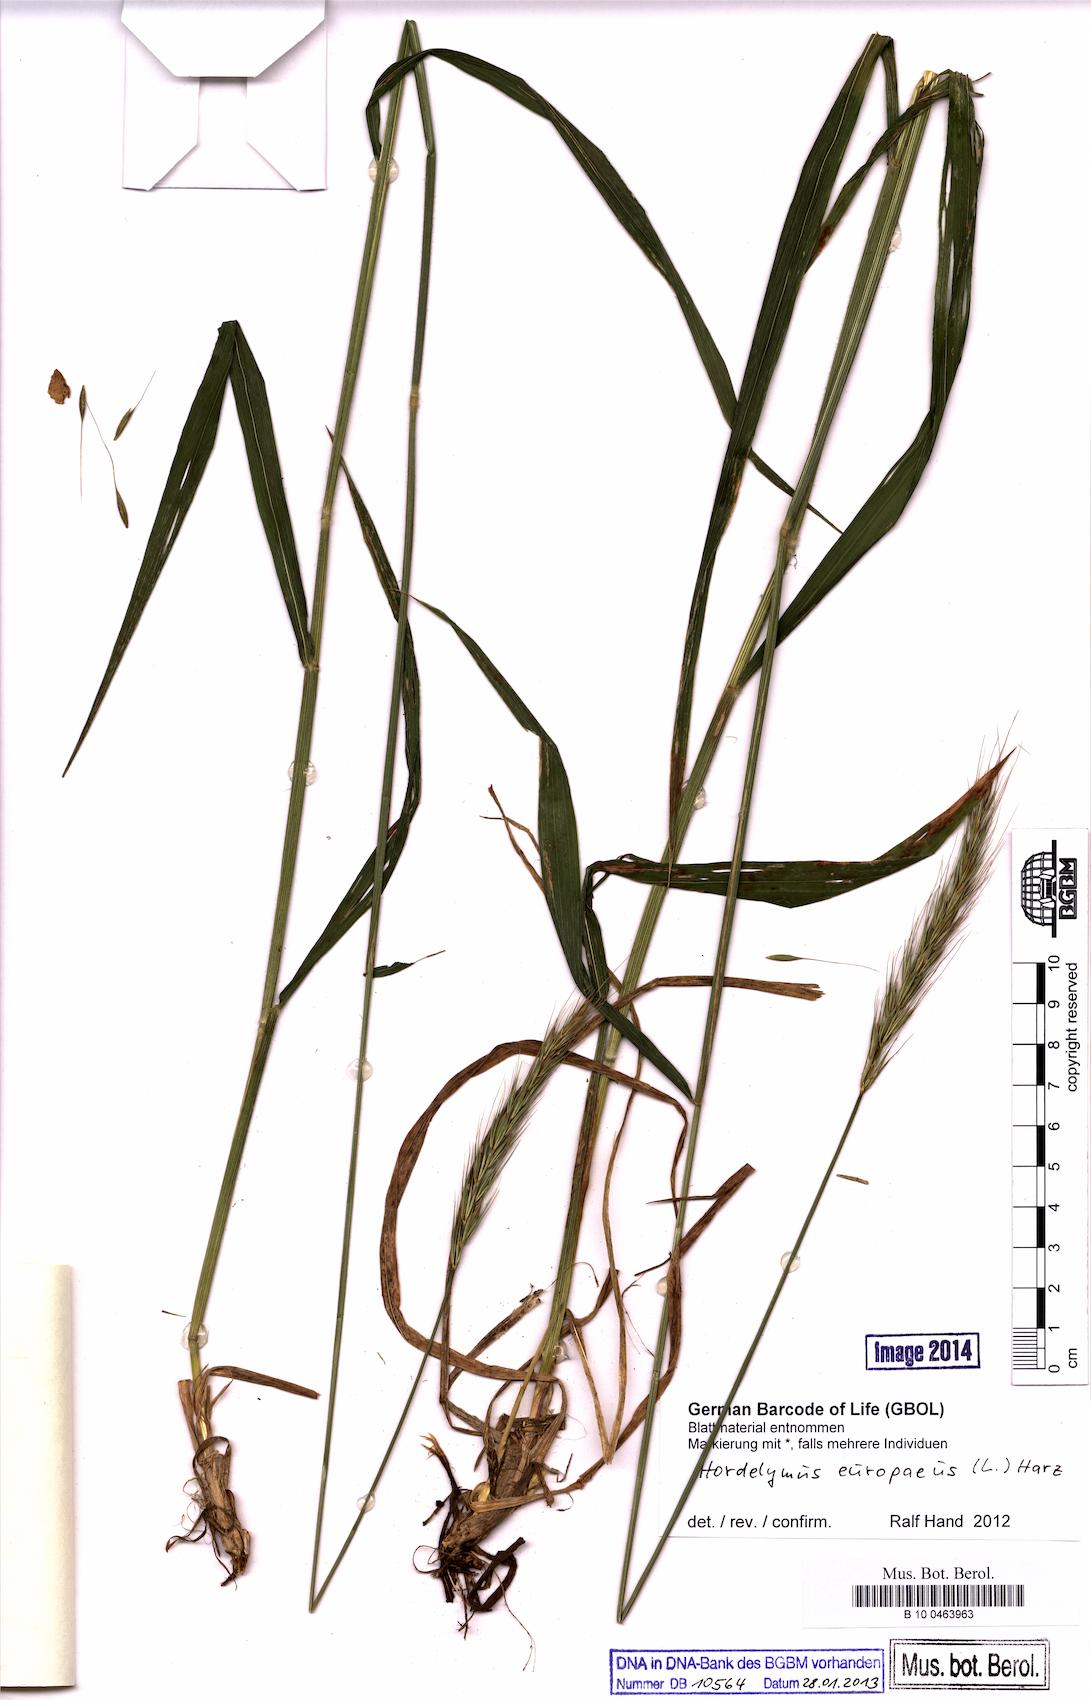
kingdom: Plantae
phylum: Tracheophyta
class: Liliopsida
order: Poales
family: Poaceae
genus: Hordelymus
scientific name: Hordelymus europaeus
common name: Wood-barley
